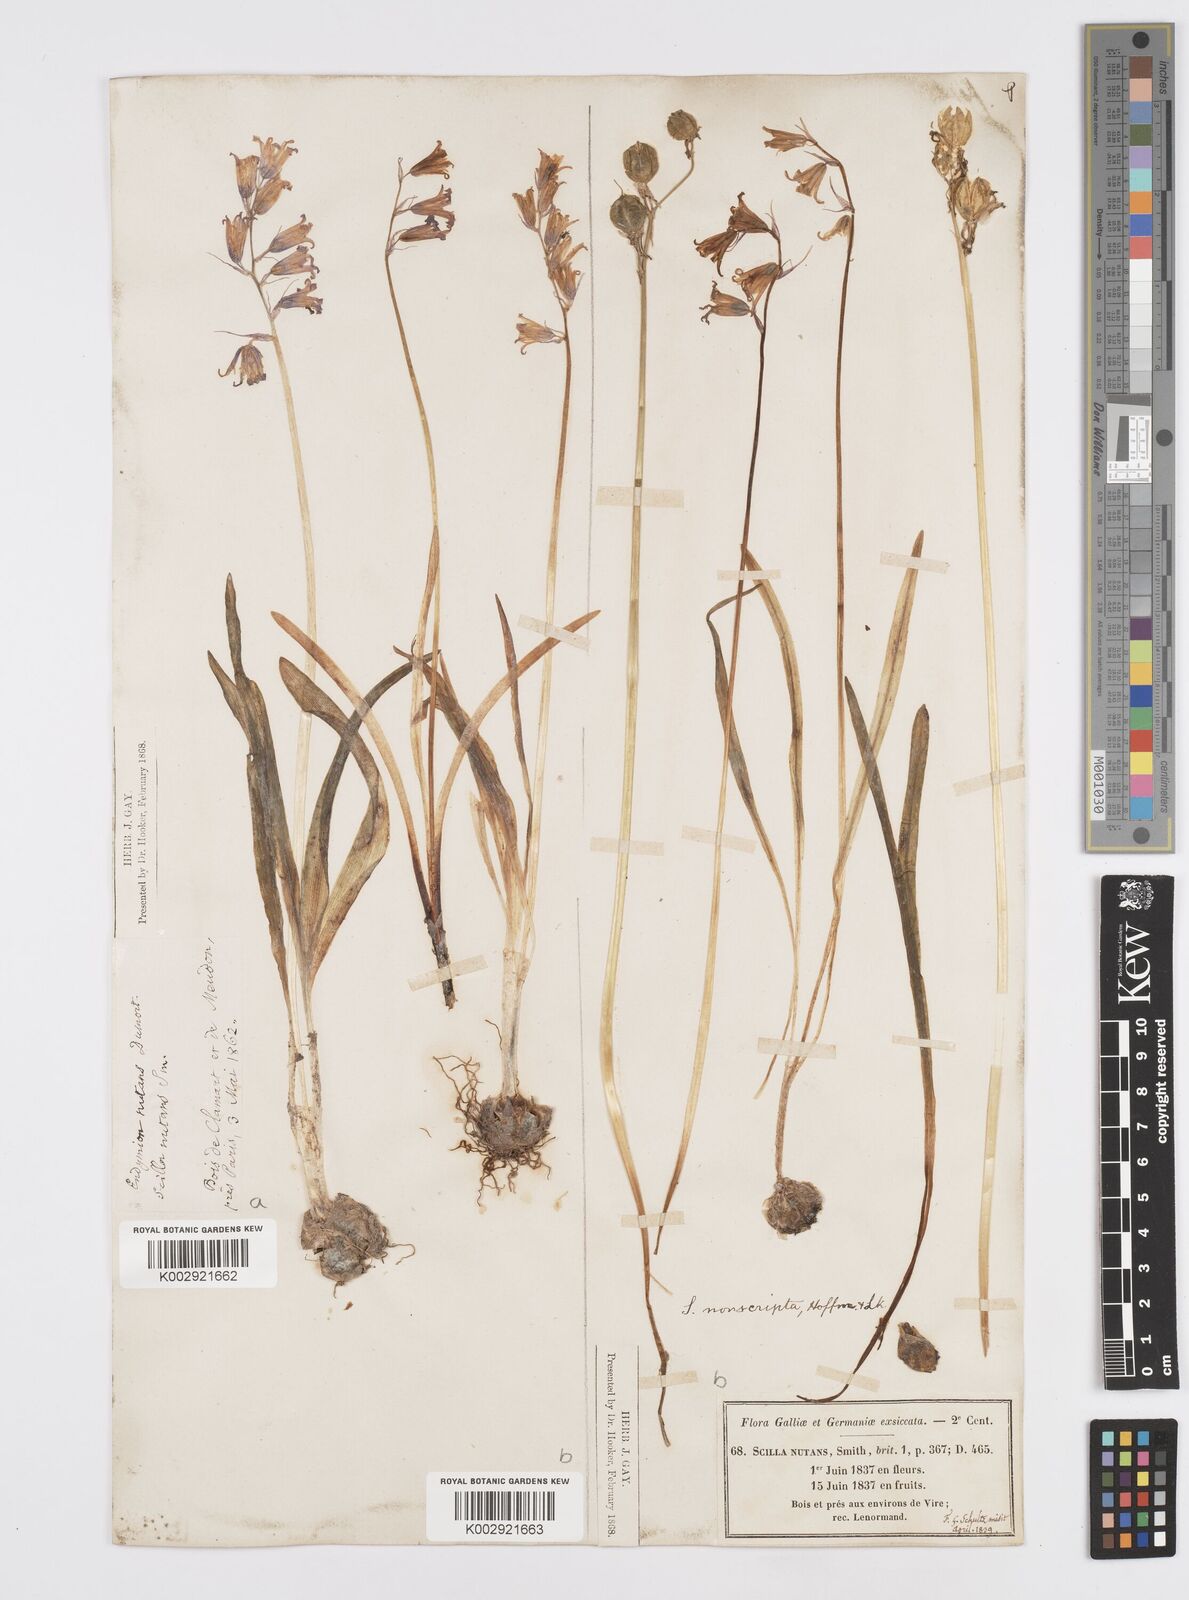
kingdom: Plantae
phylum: Tracheophyta
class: Liliopsida
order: Asparagales
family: Asparagaceae
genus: Hyacinthoides
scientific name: Hyacinthoides non-scripta
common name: Bluebell
